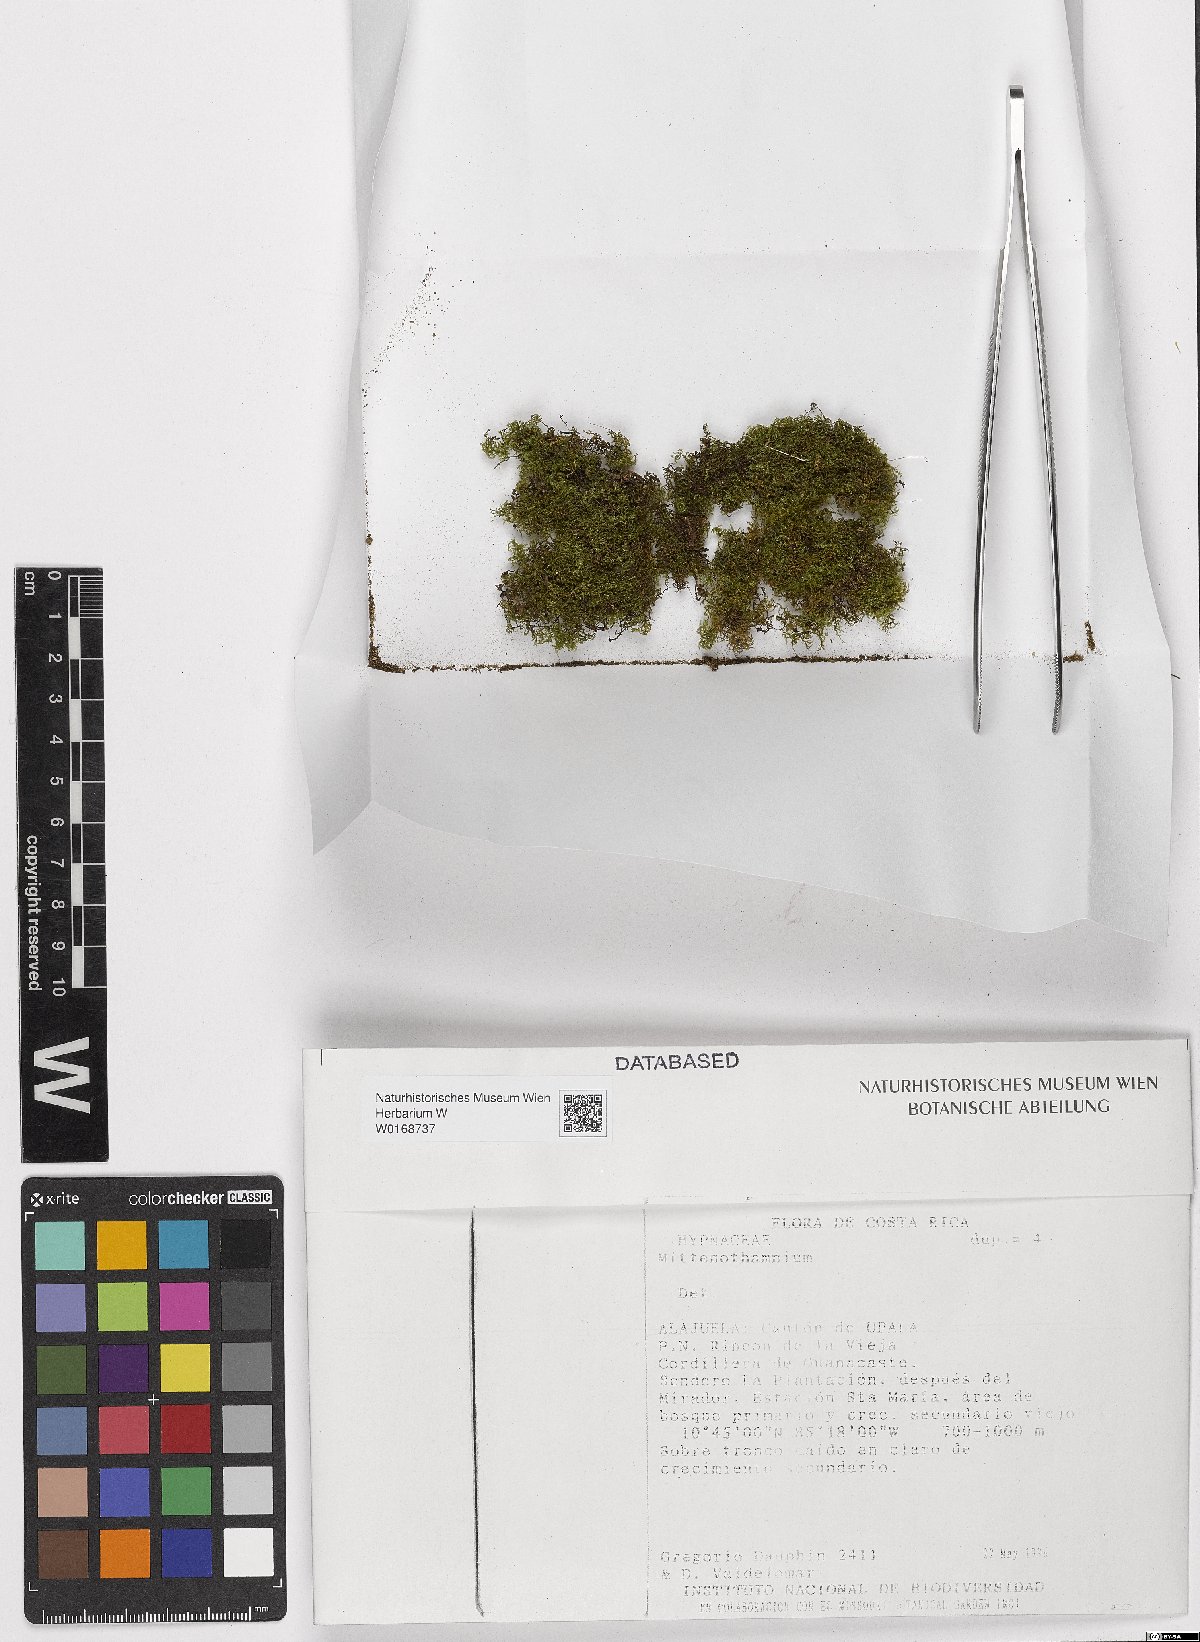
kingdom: Plantae
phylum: Bryophyta
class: Bryopsida
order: Hypnales
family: Hypnaceae
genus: Mittenothamnium
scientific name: Mittenothamnium
